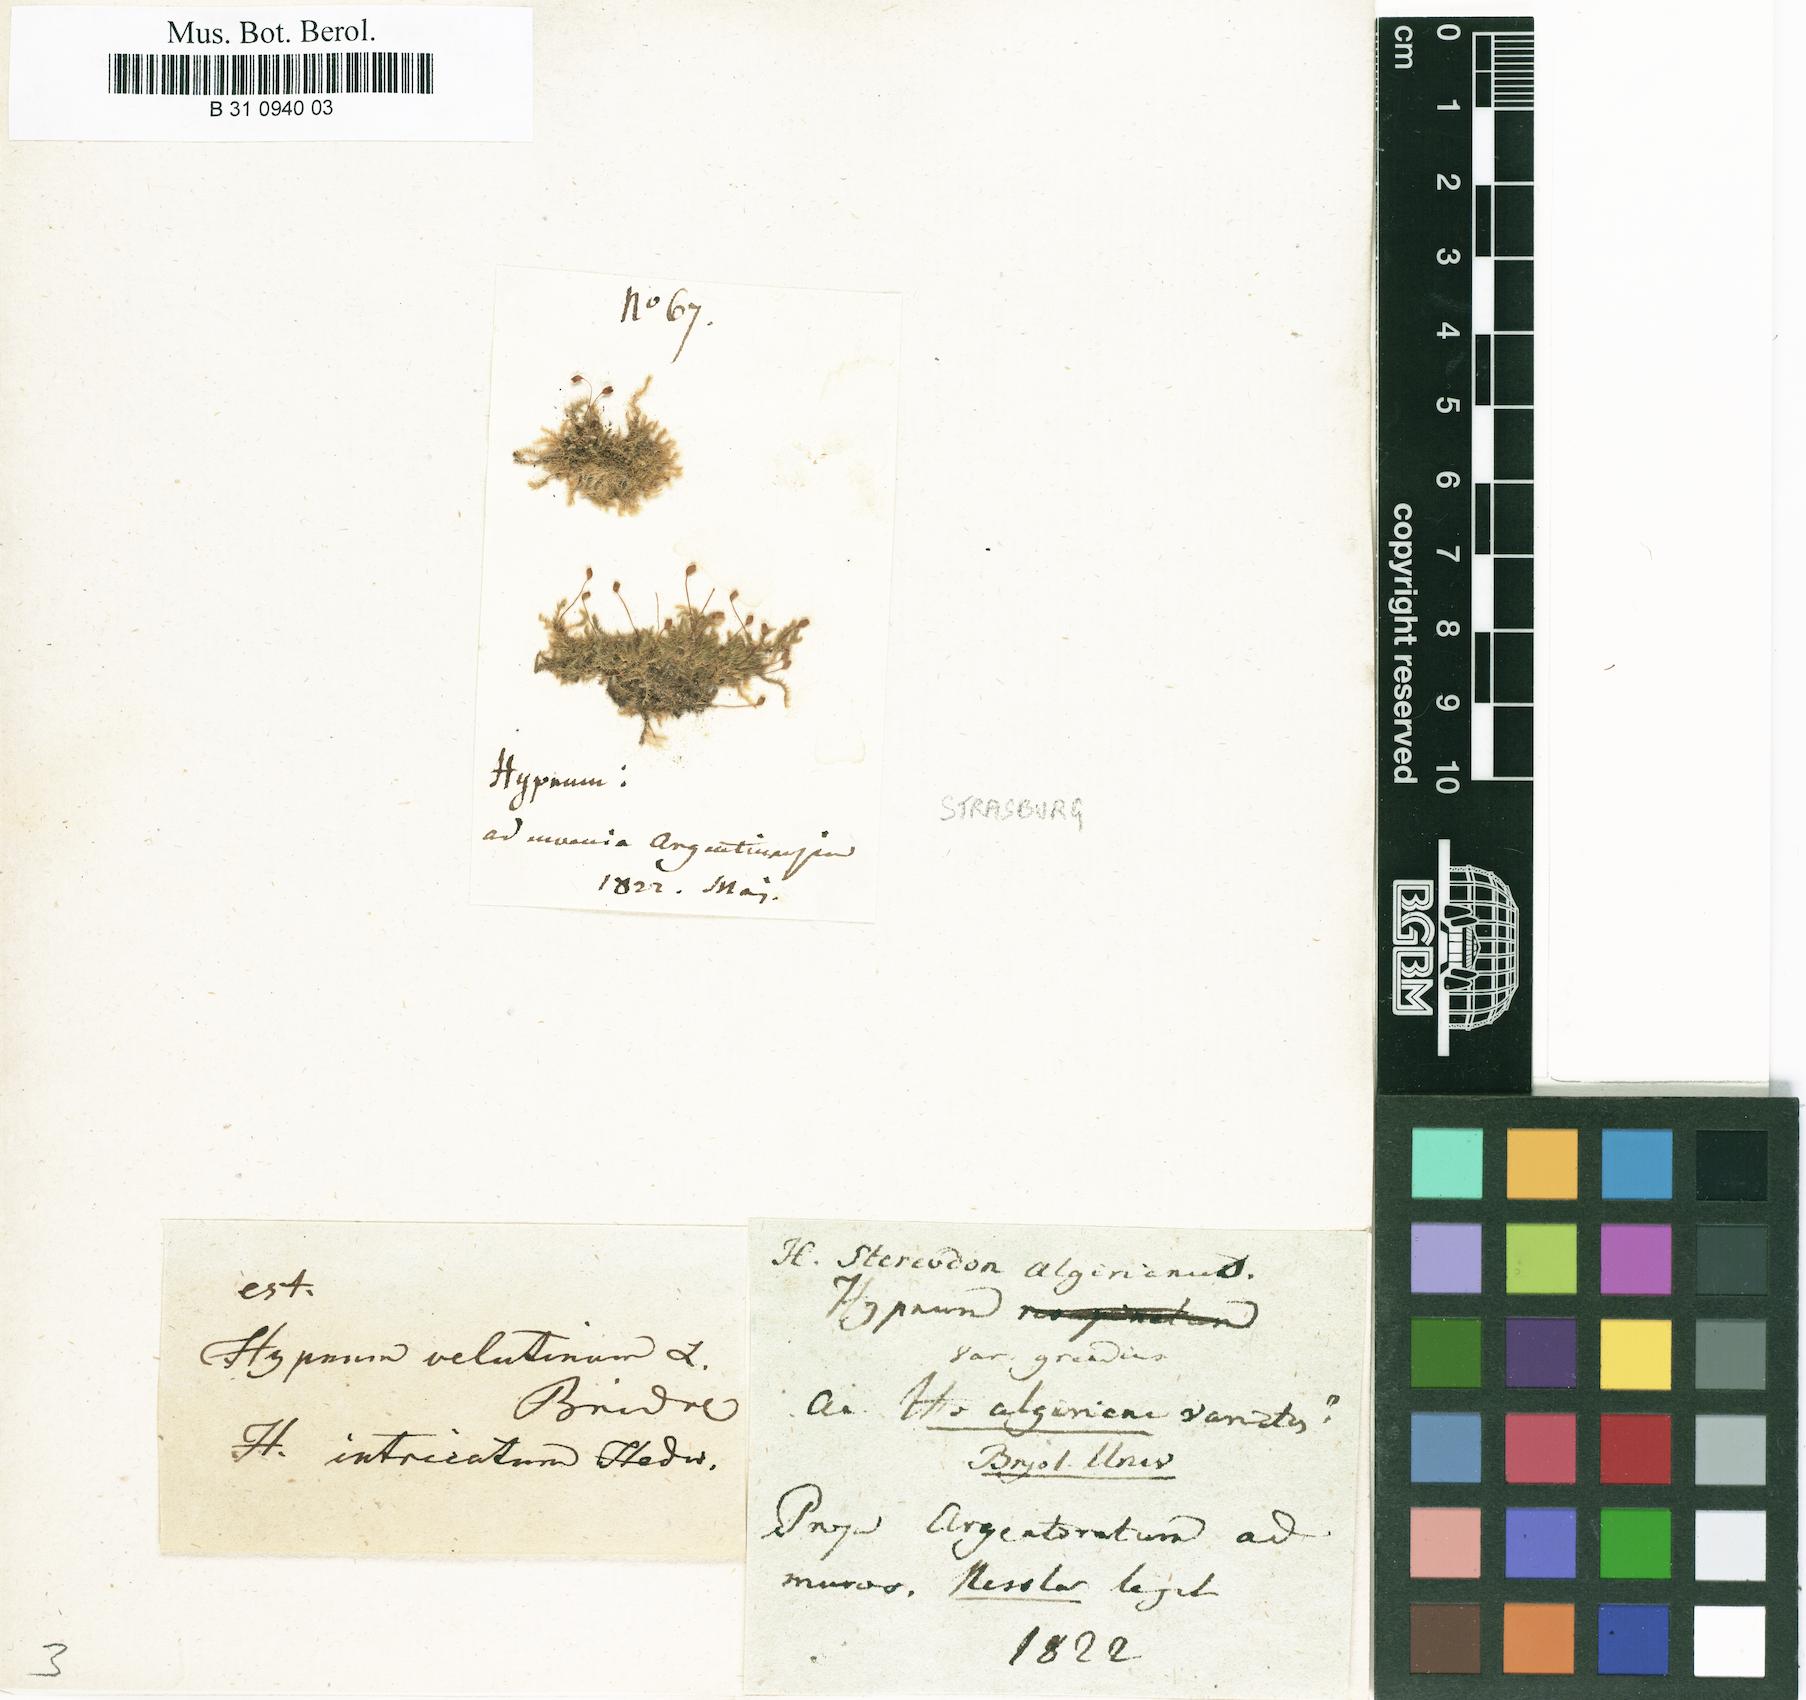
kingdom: Plantae
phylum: Bryophyta
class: Bryopsida
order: Hypnales
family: Brachytheciaceae
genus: Rhynchostegiella
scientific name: Rhynchostegiella curviseta
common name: Curve-stalked feather-moss
